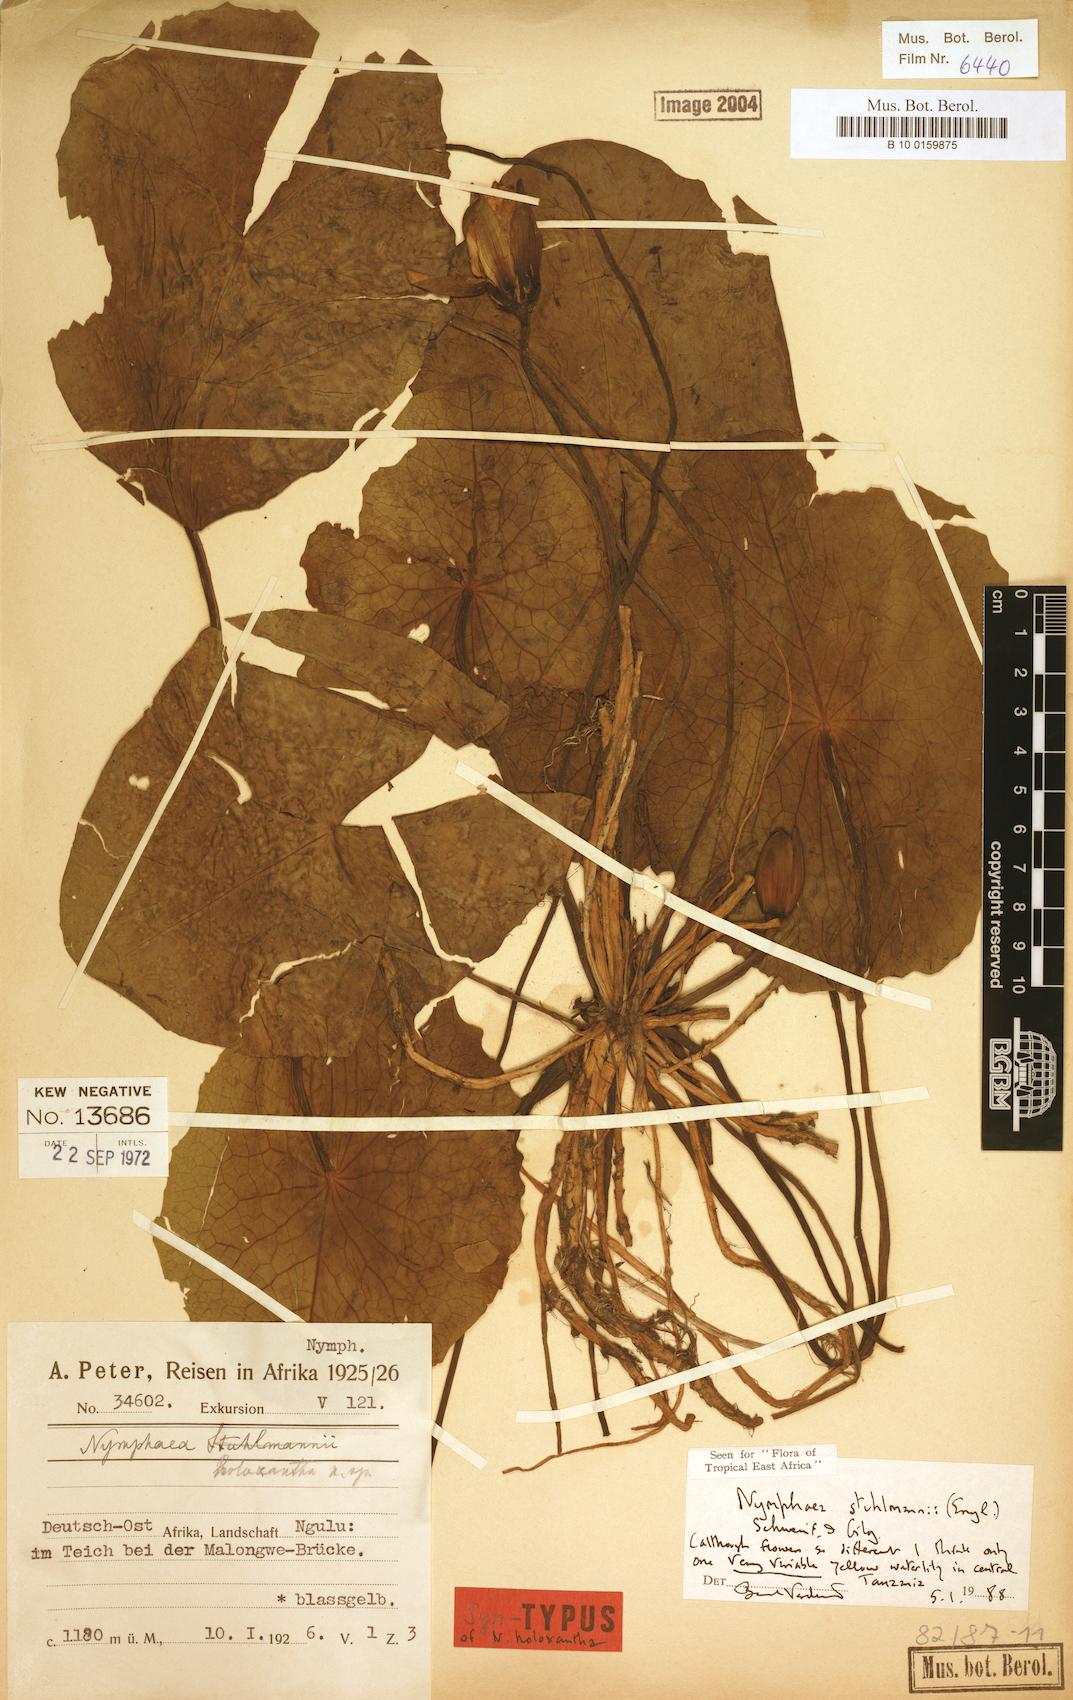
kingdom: Plantae
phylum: Tracheophyta
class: Magnoliopsida
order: Nymphaeales
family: Nymphaeaceae
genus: Nymphaea
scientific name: Nymphaea stuhlmannii
